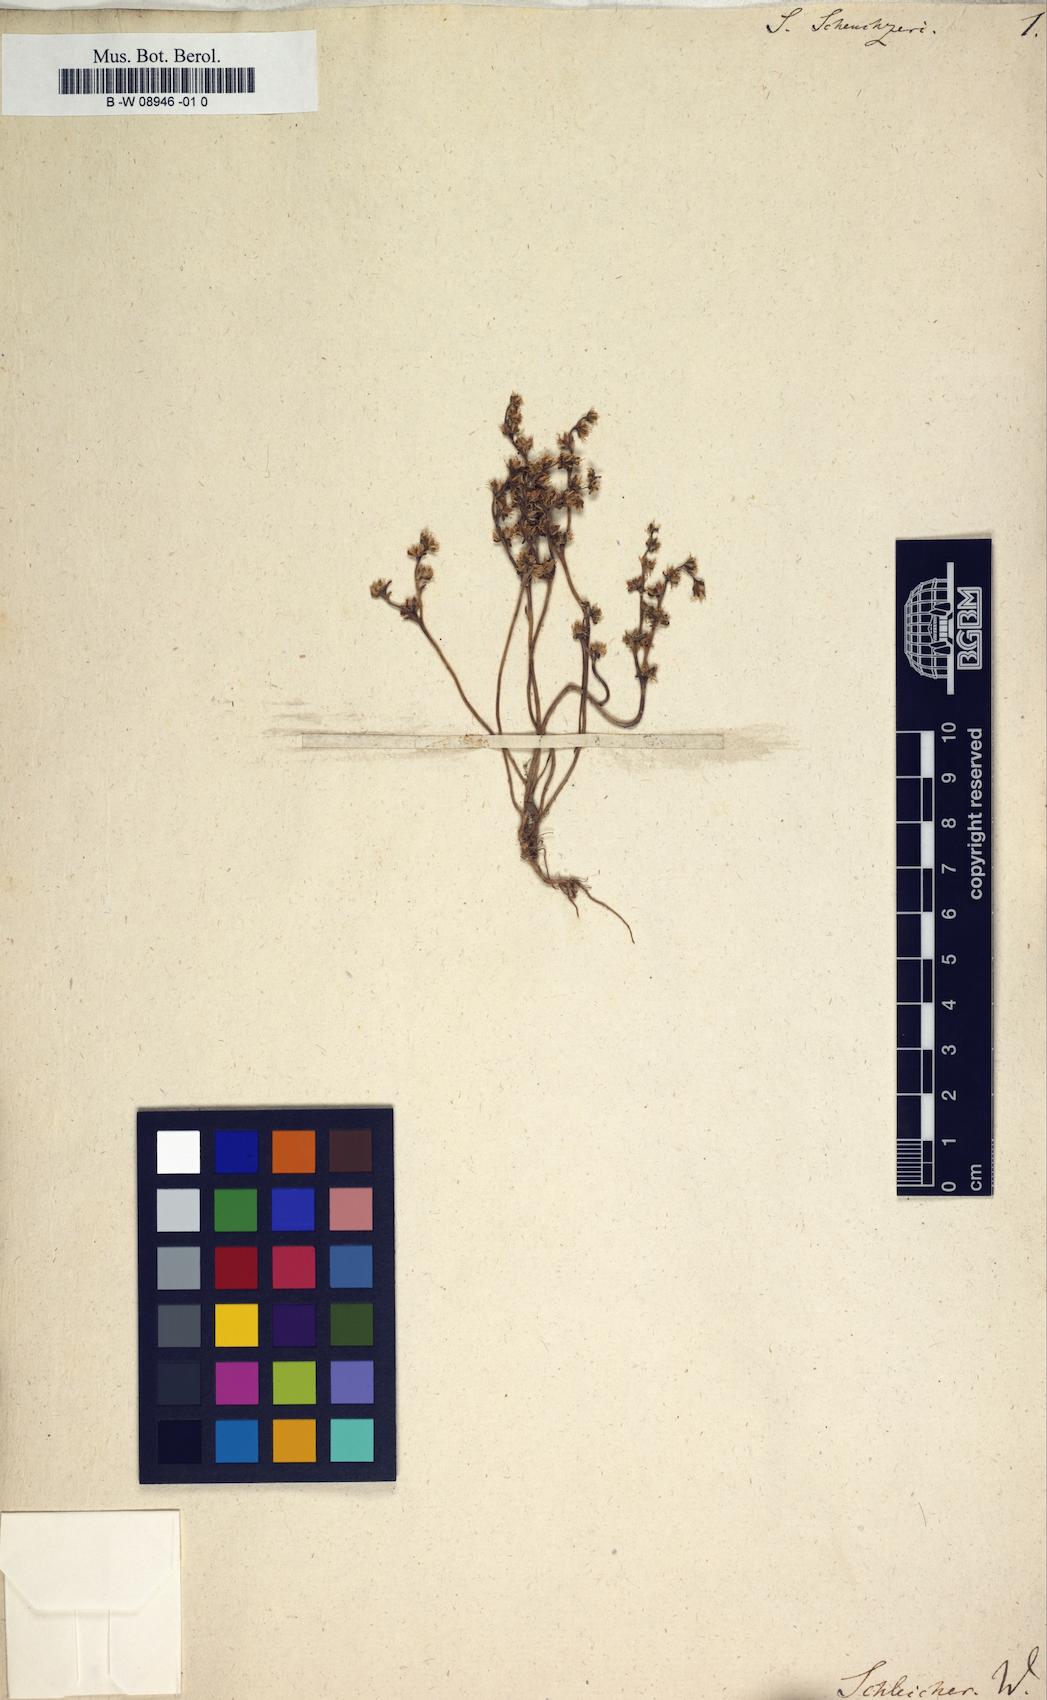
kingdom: Plantae
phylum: Tracheophyta
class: Magnoliopsida
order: Saxifragales
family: Crassulaceae
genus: Sedum
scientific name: Sedum alpestre
